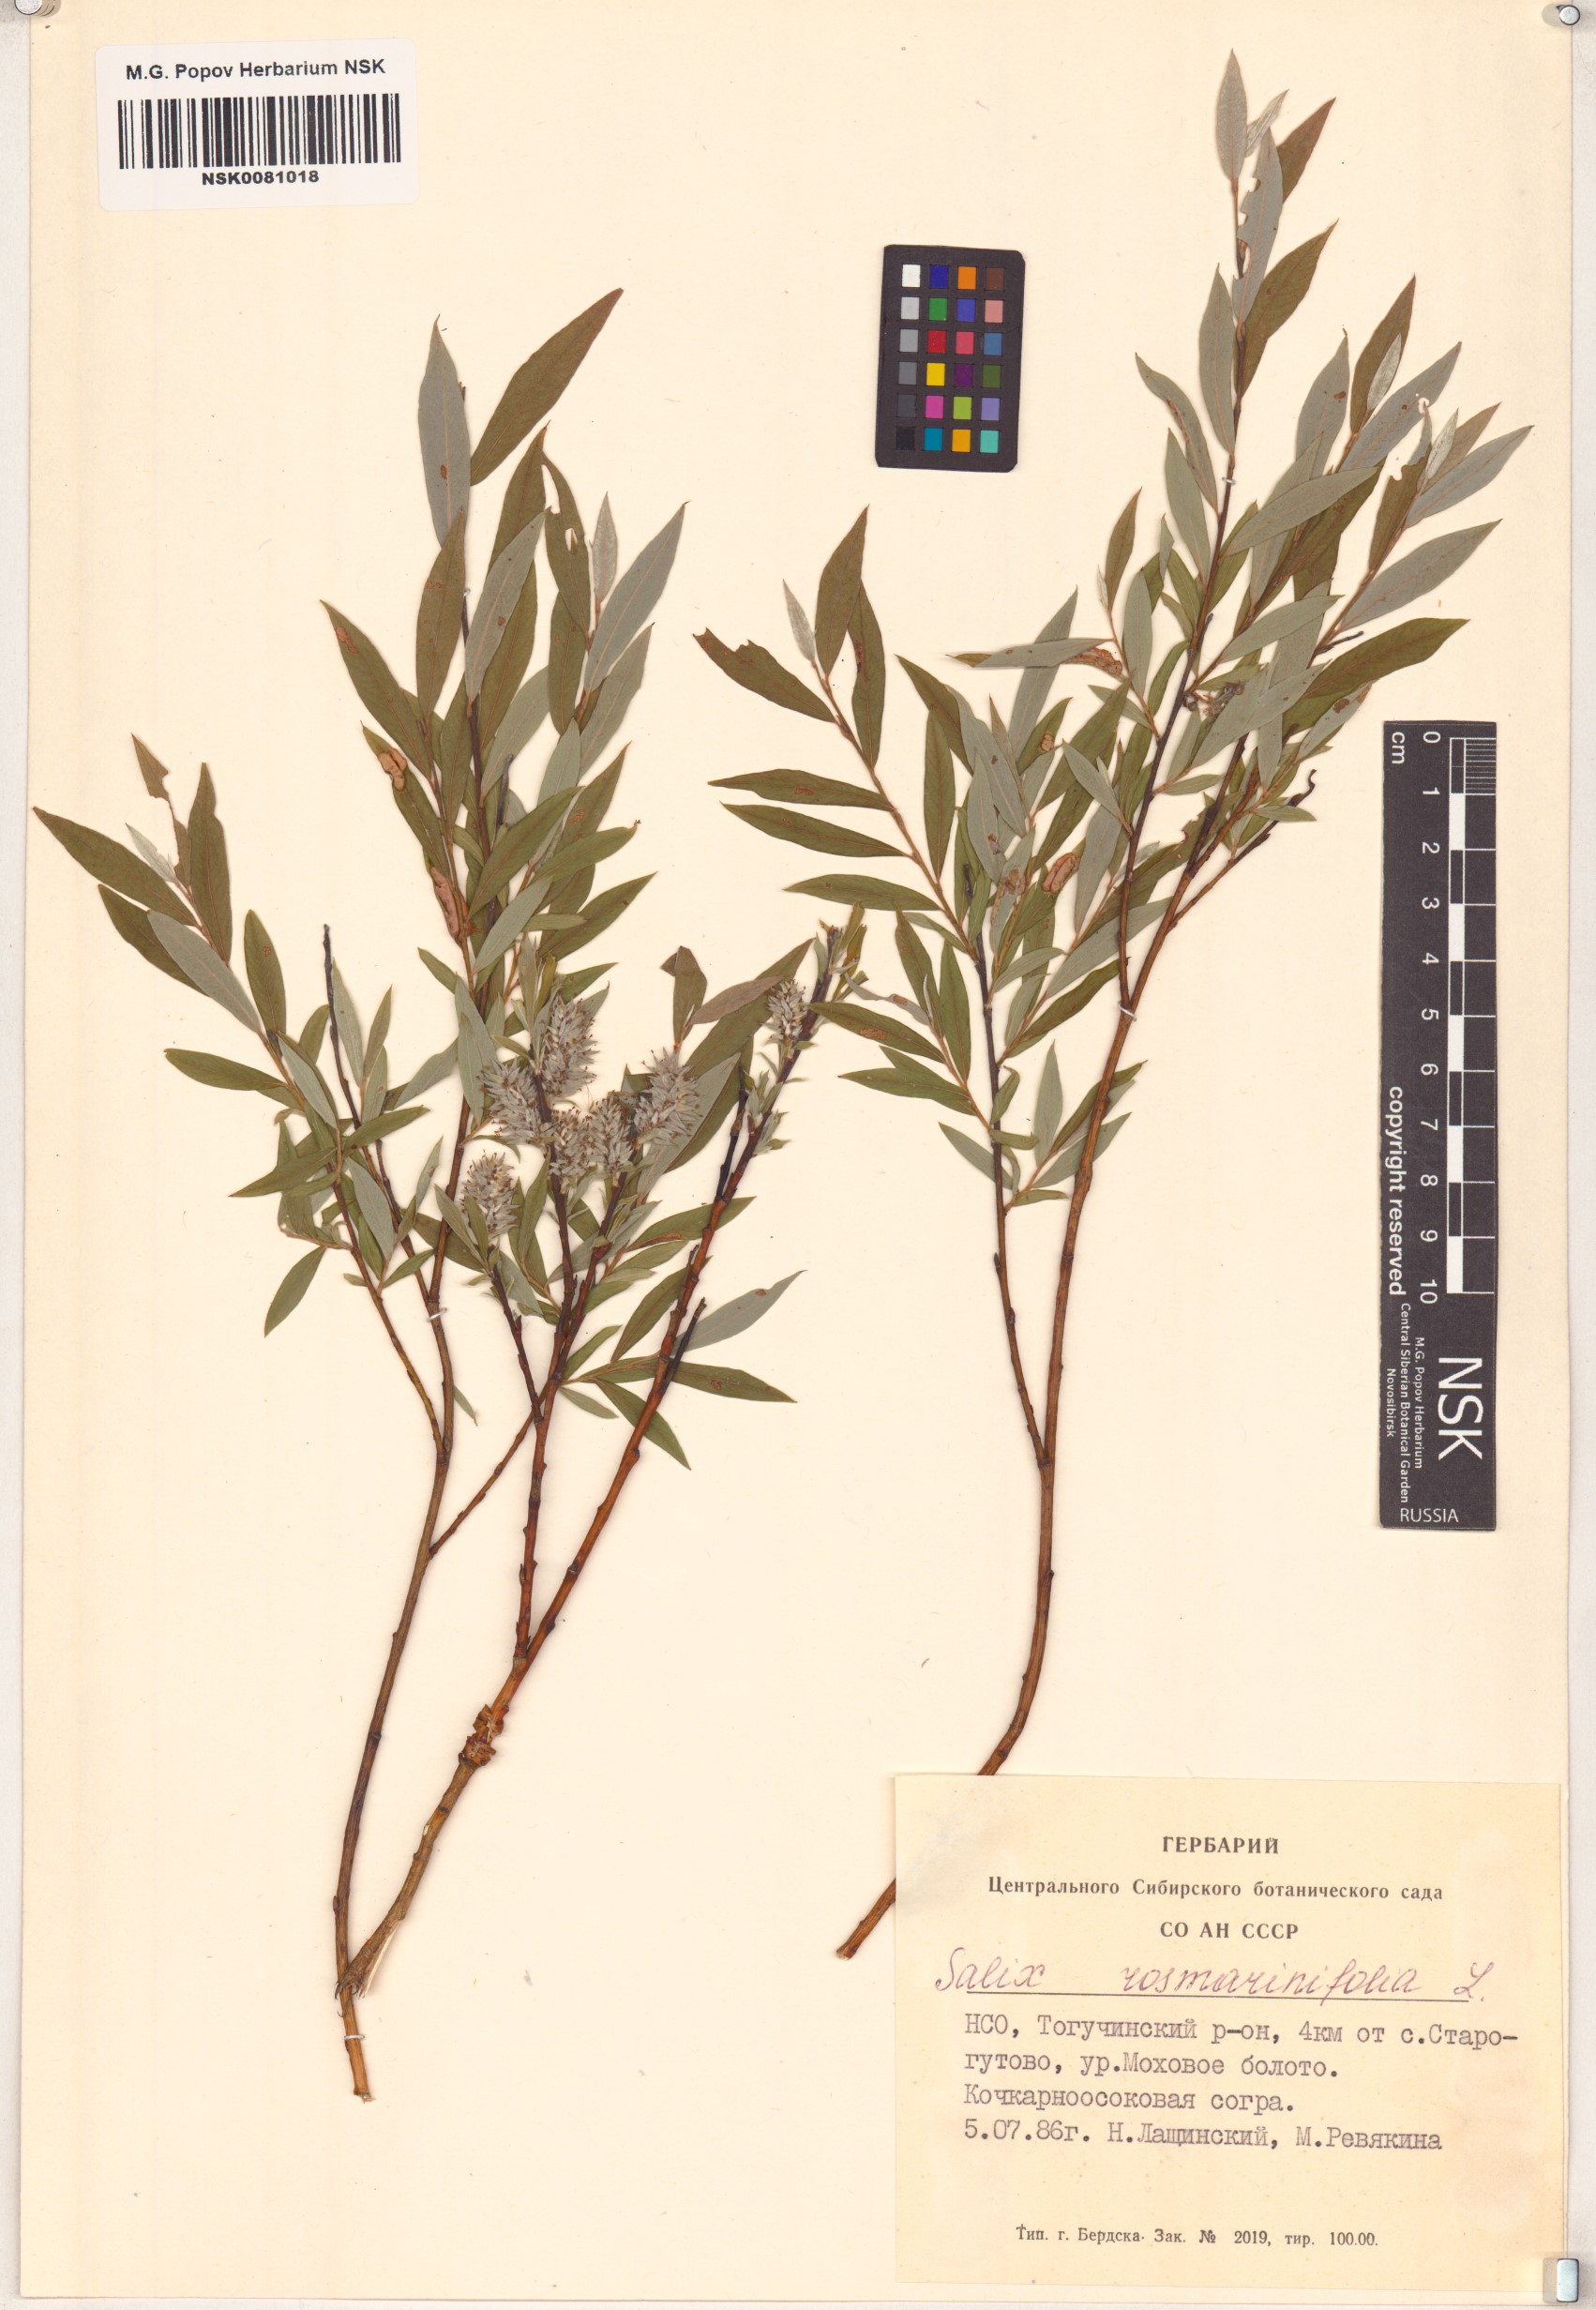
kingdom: Plantae
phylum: Tracheophyta
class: Magnoliopsida
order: Malpighiales
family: Salicaceae
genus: Salix
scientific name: Salix rosmarinifolia
